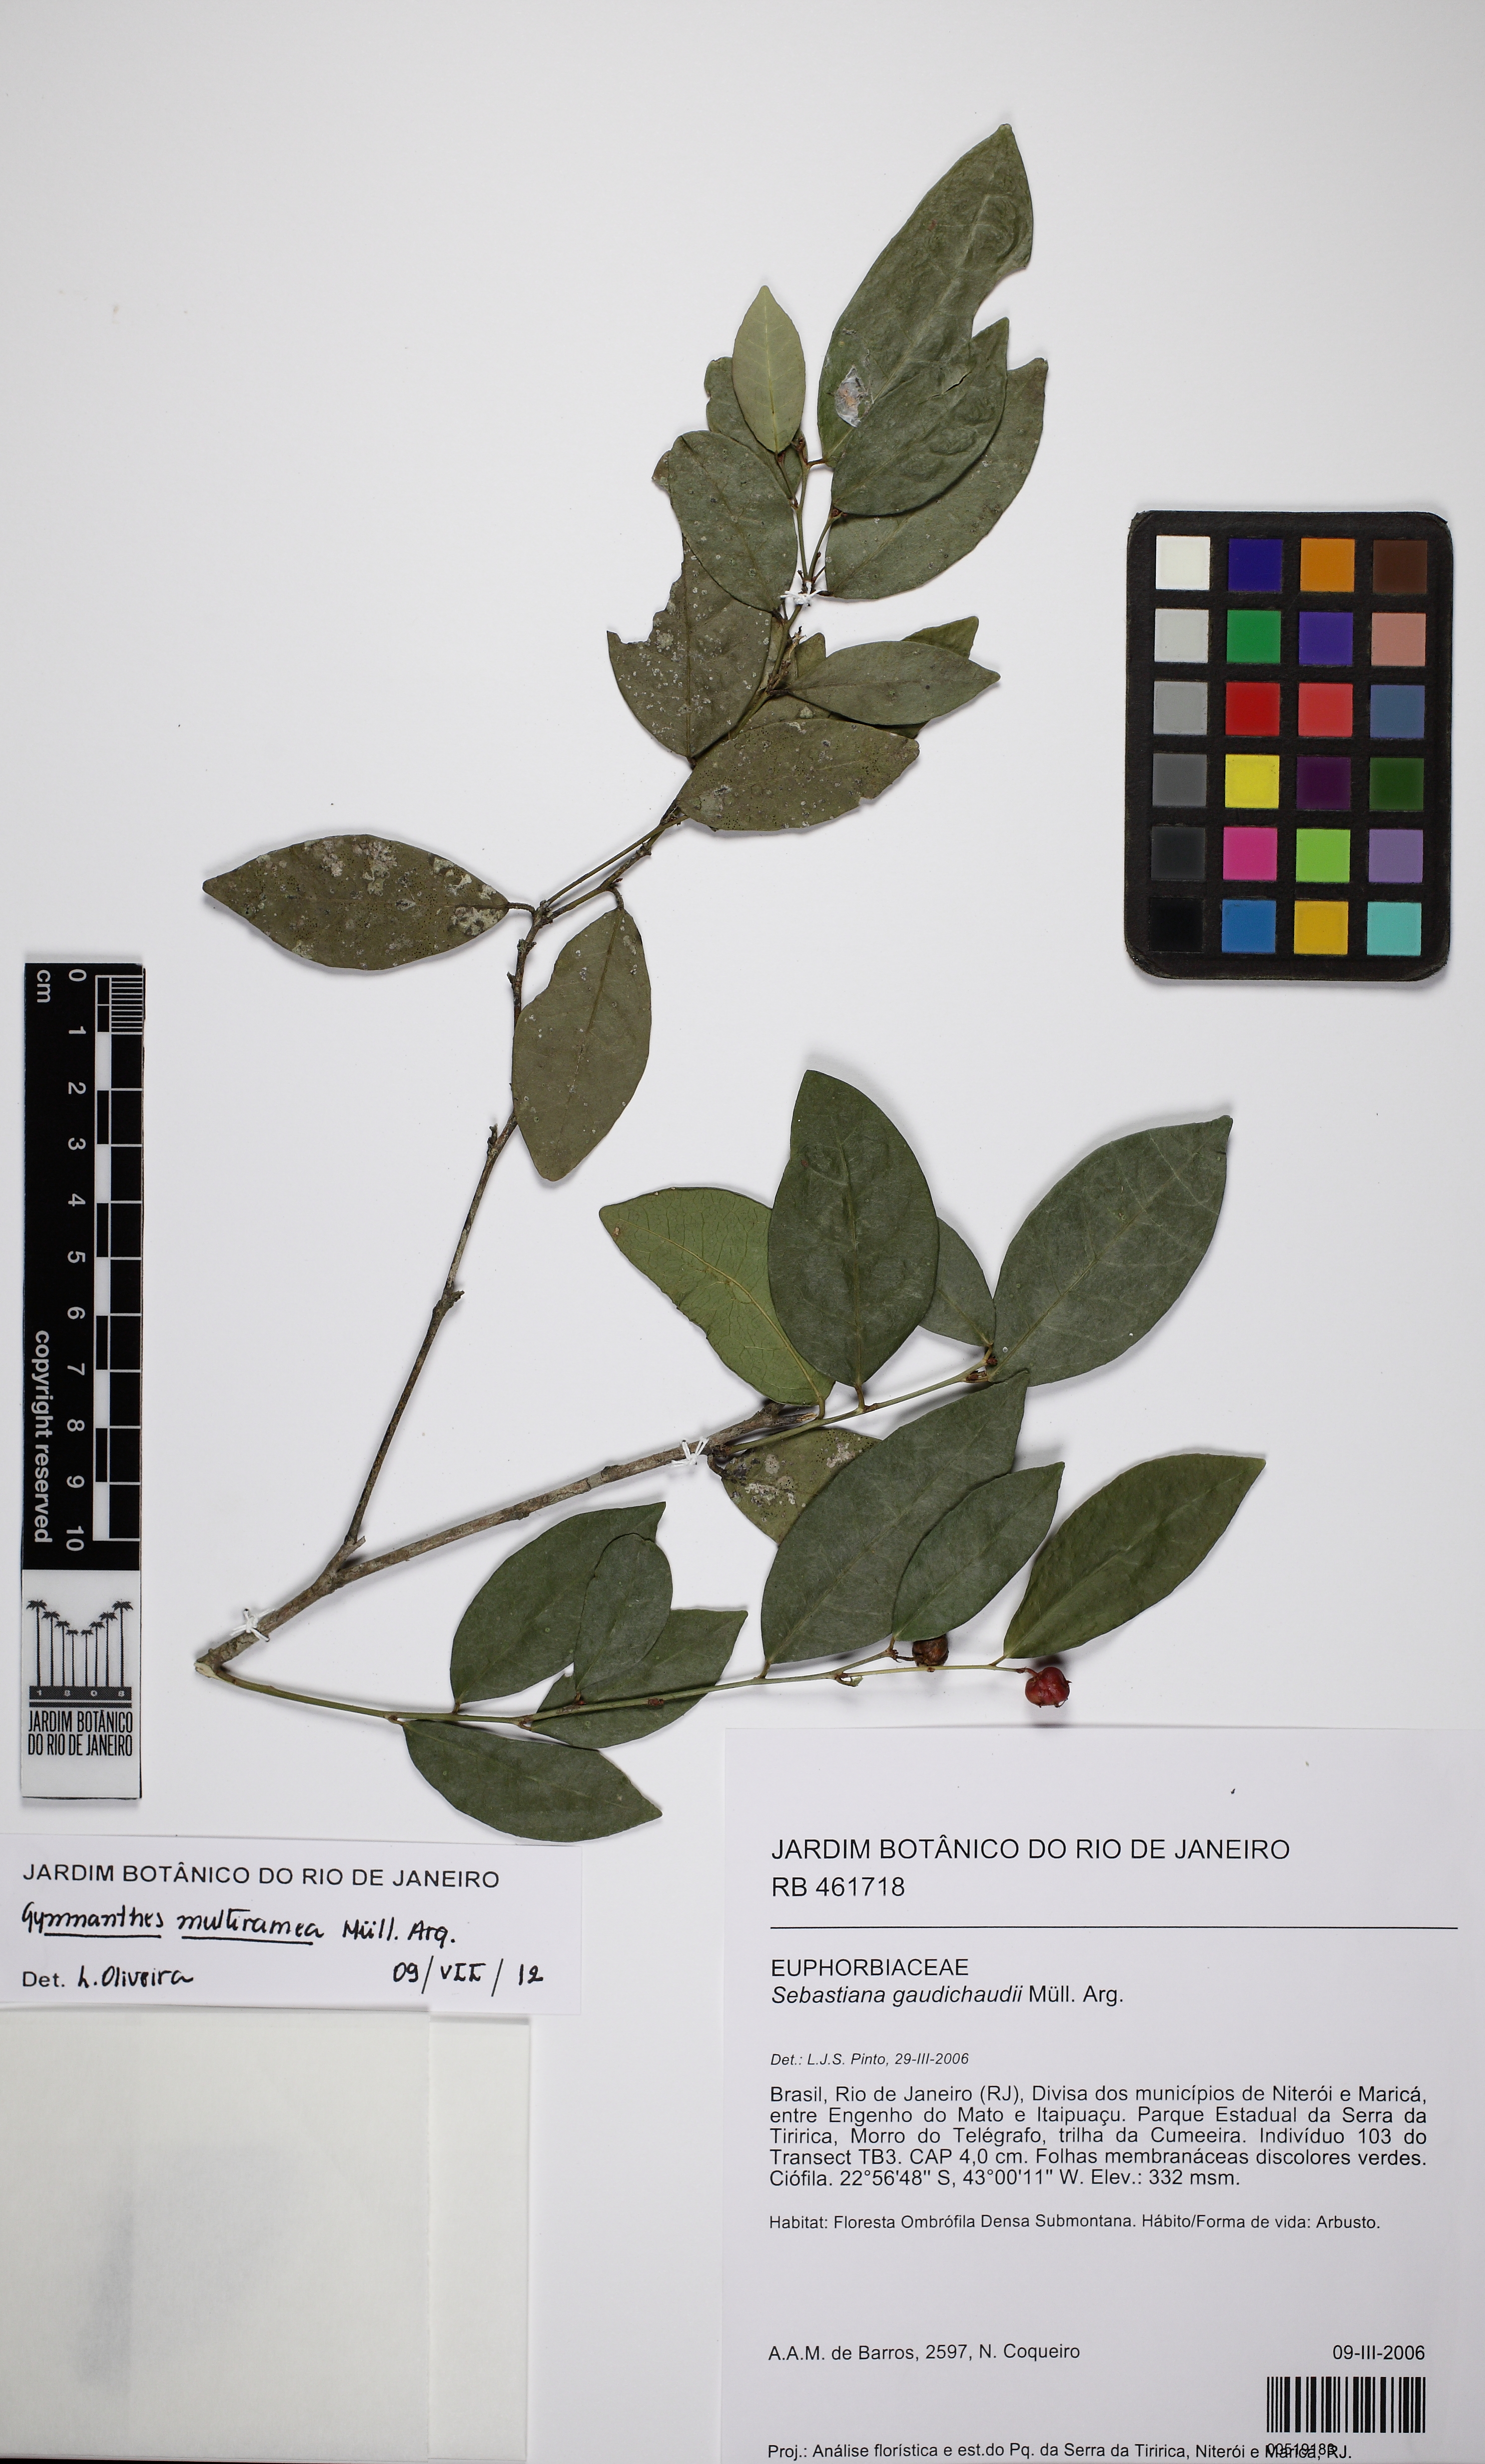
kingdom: Plantae
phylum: Tracheophyta
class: Magnoliopsida
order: Malpighiales
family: Euphorbiaceae
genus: Gymnanthes
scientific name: Gymnanthes glabrata
